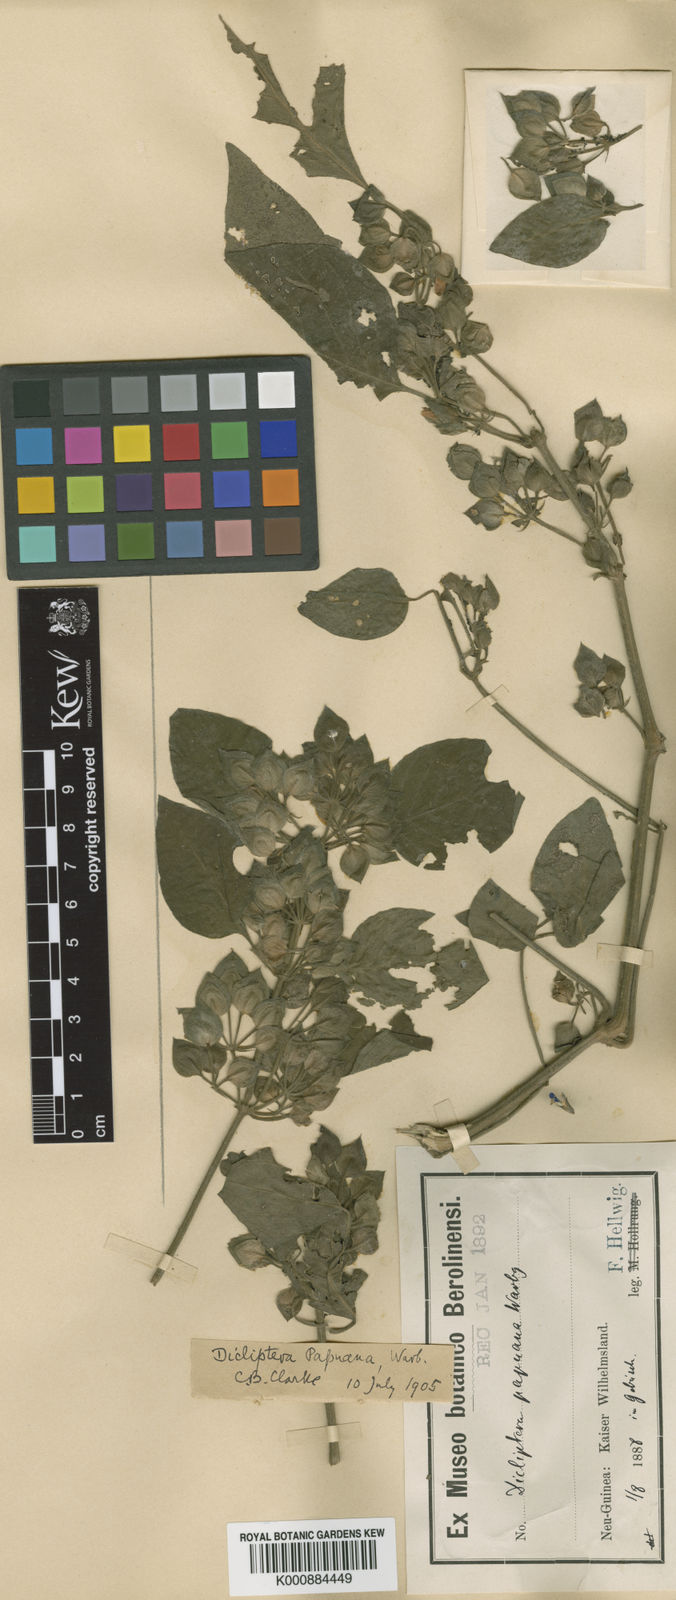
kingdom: Plantae
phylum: Tracheophyta
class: Magnoliopsida
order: Lamiales
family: Acanthaceae
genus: Dicliptera
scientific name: Dicliptera papuana
